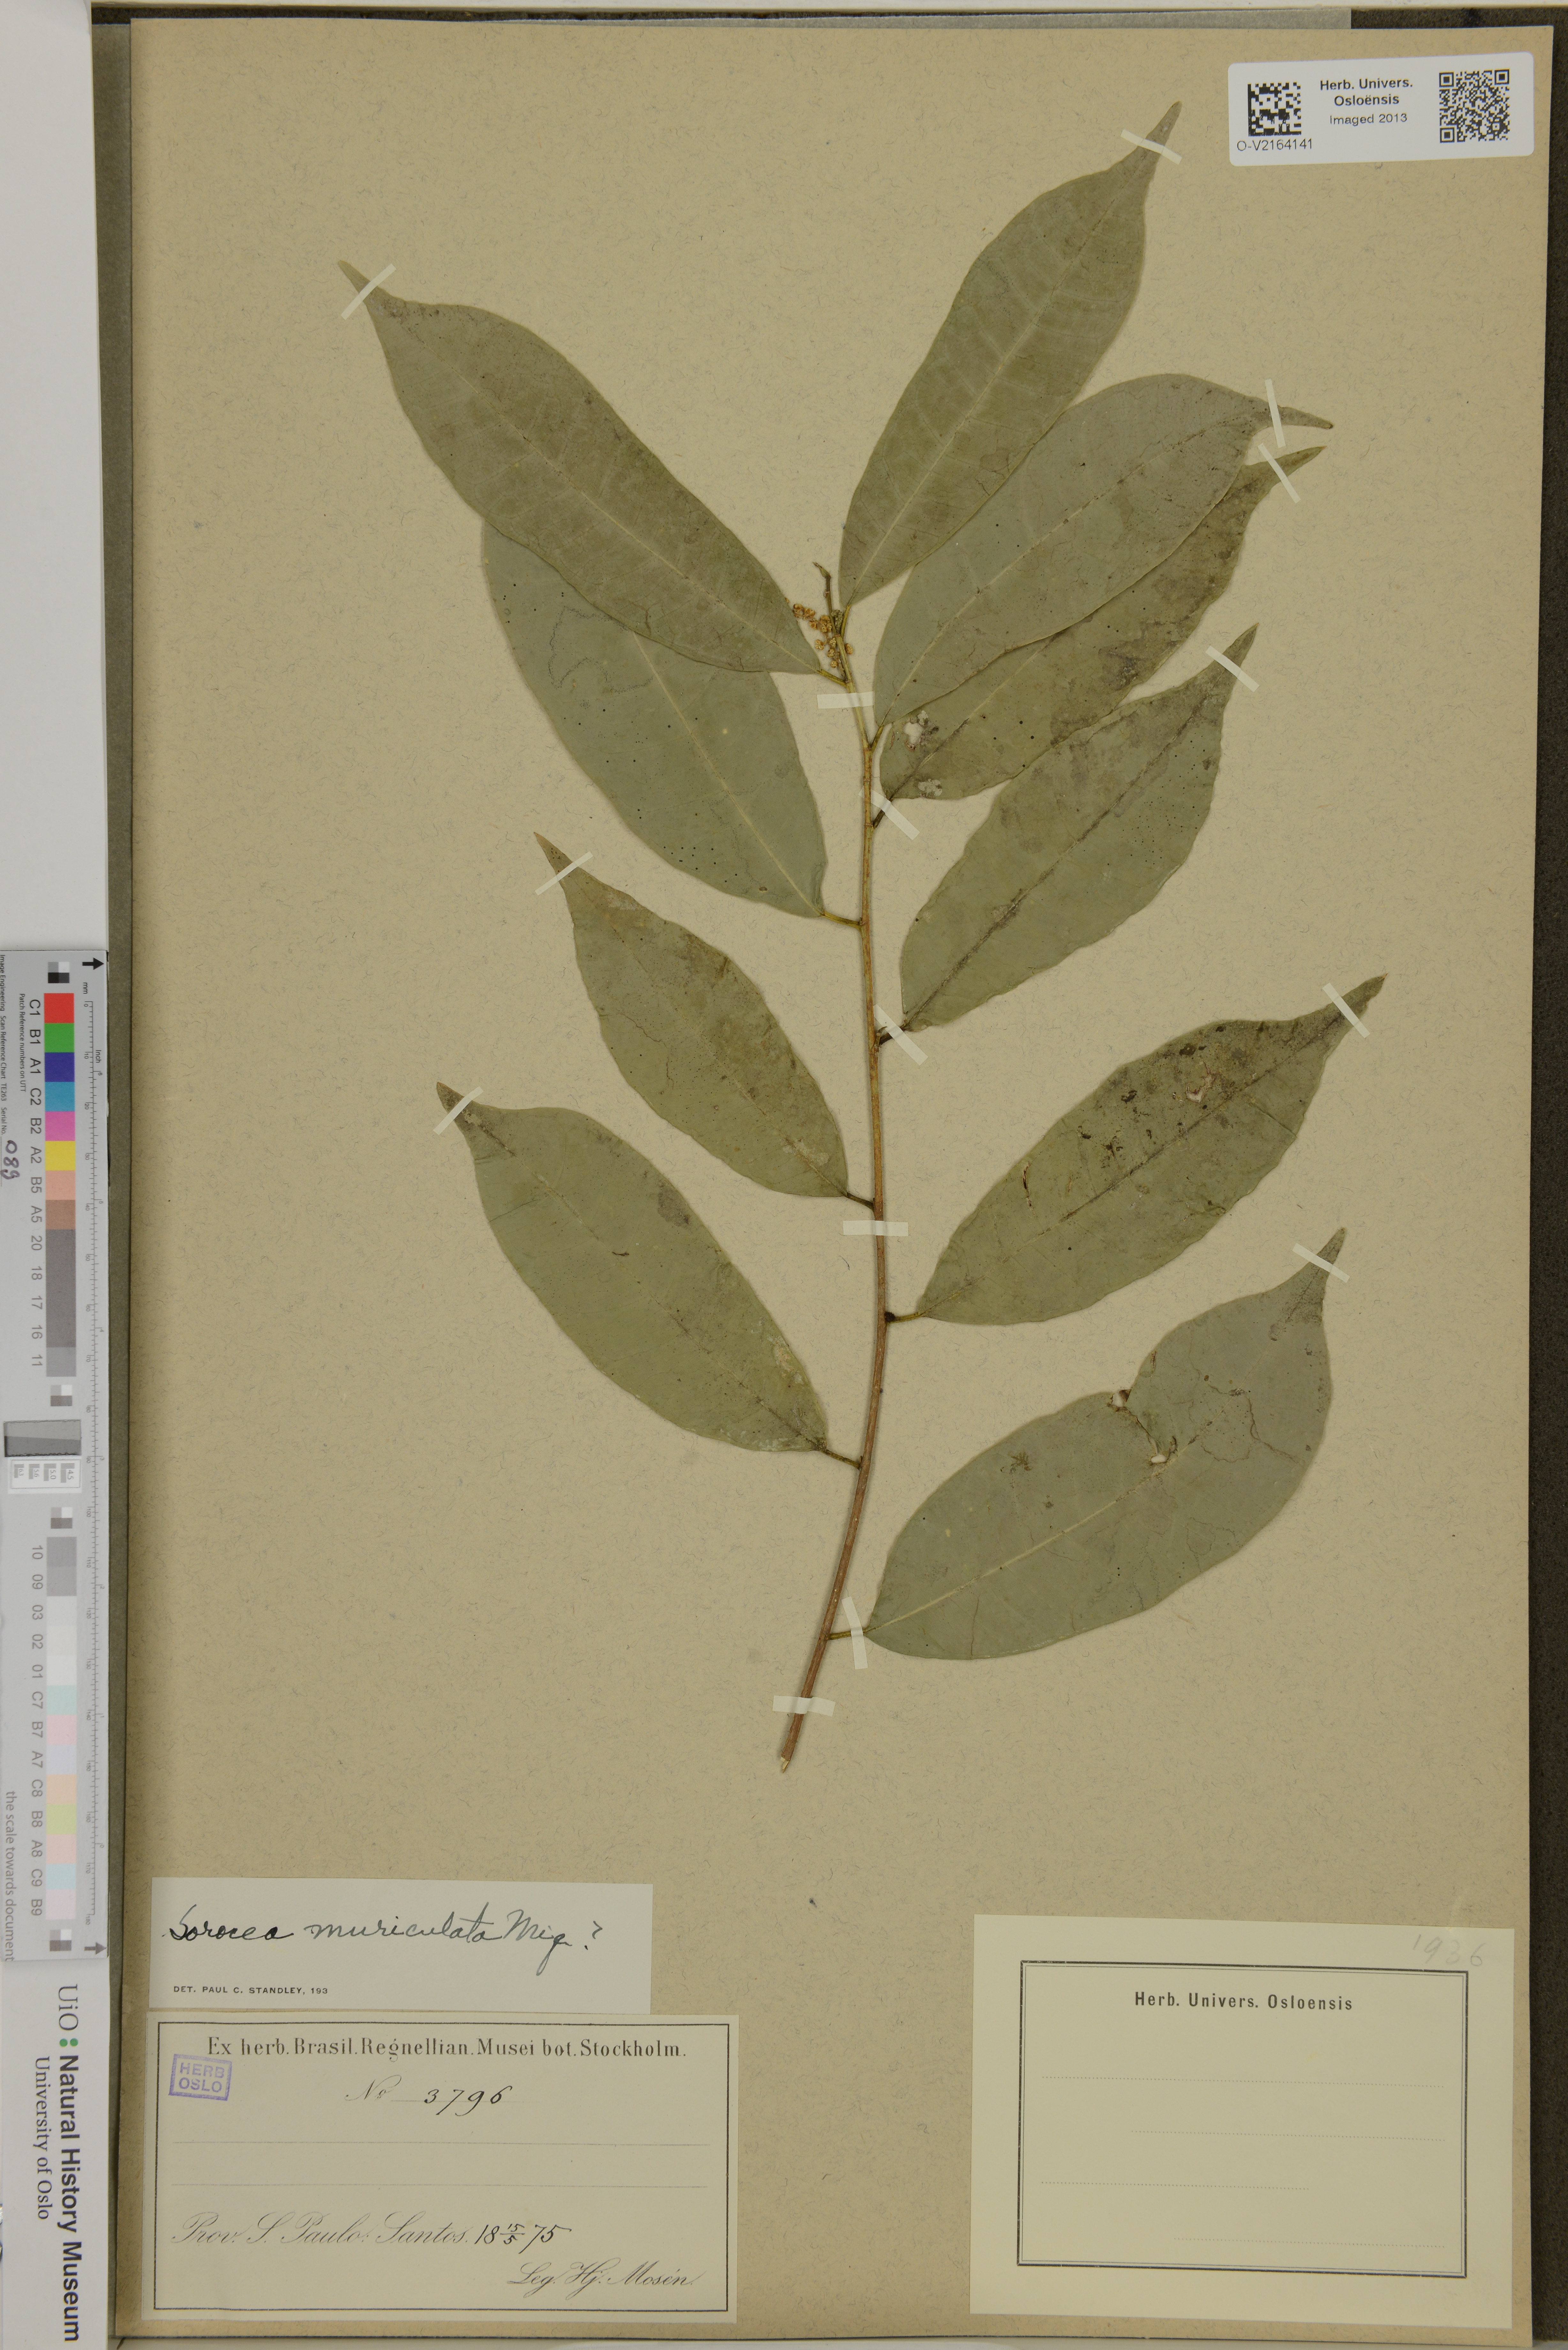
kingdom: Plantae
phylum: Tracheophyta
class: Magnoliopsida
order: Rosales
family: Moraceae
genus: Sorocea
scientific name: Sorocea muriculata
